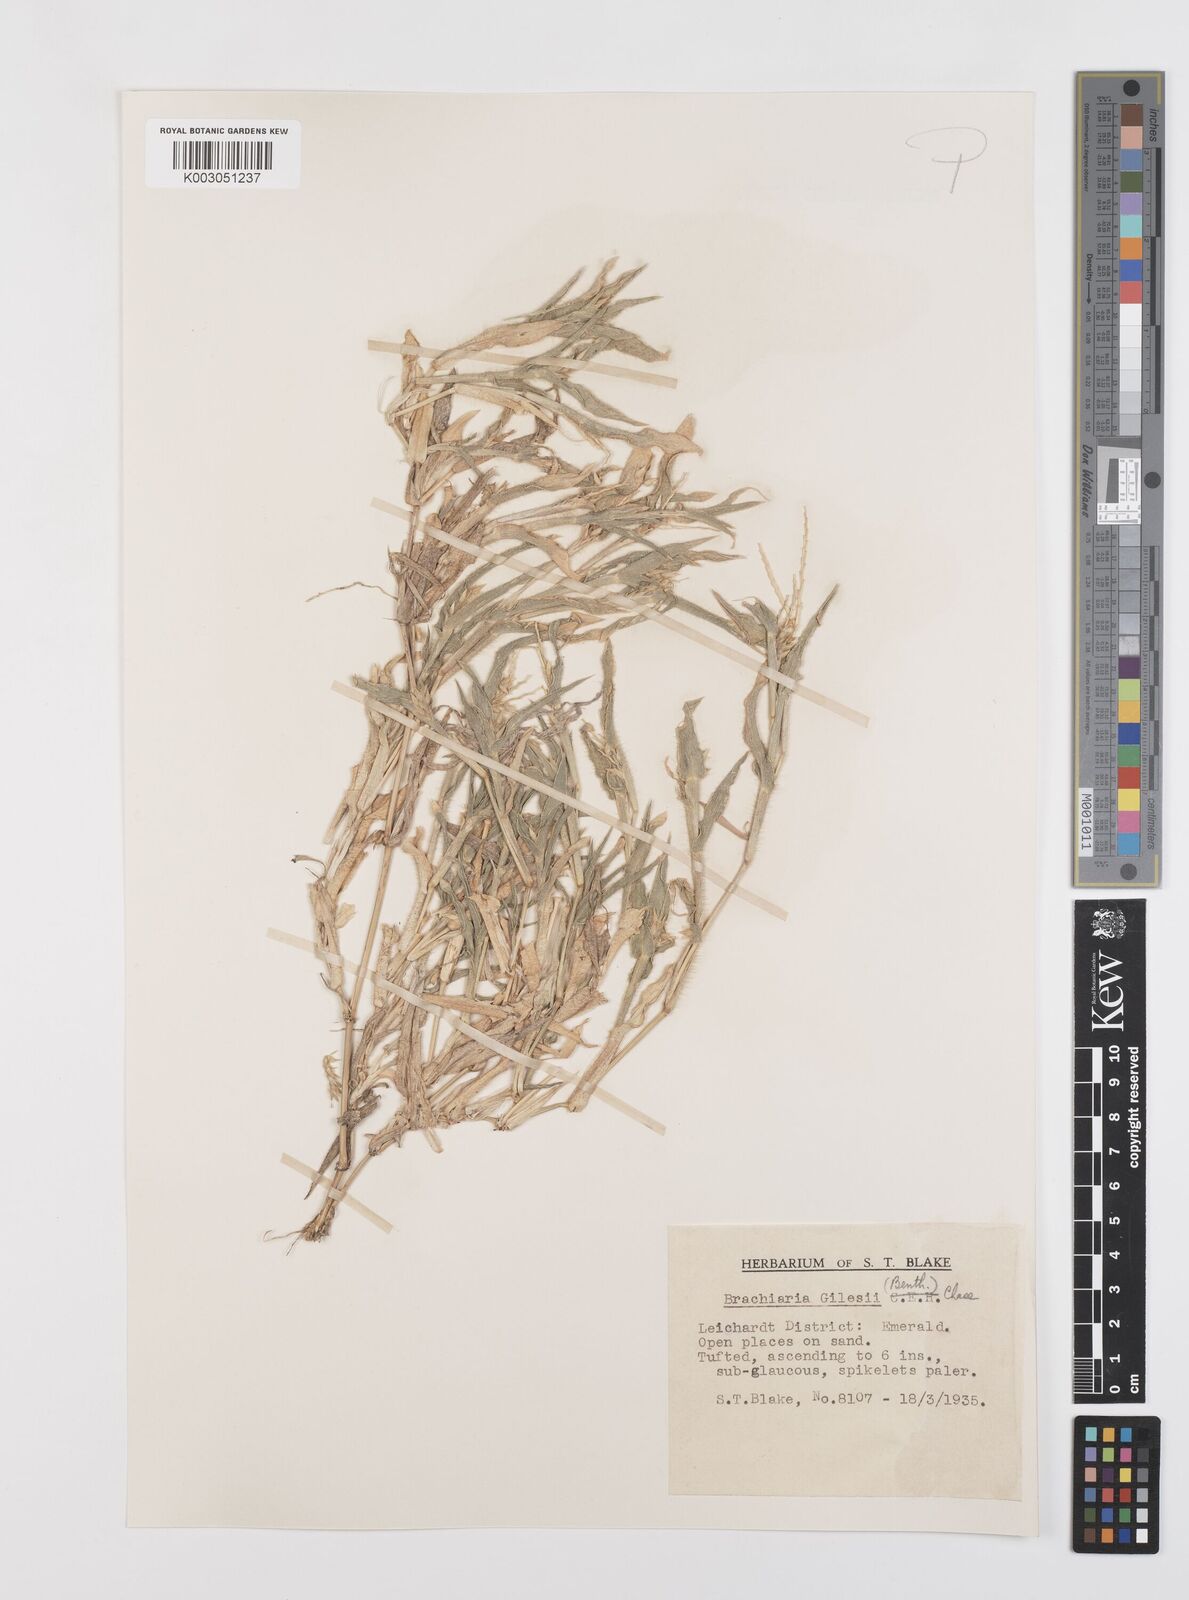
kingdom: Plantae
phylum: Tracheophyta
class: Liliopsida
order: Poales
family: Poaceae
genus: Urochloa
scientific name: Urochloa gilesii
